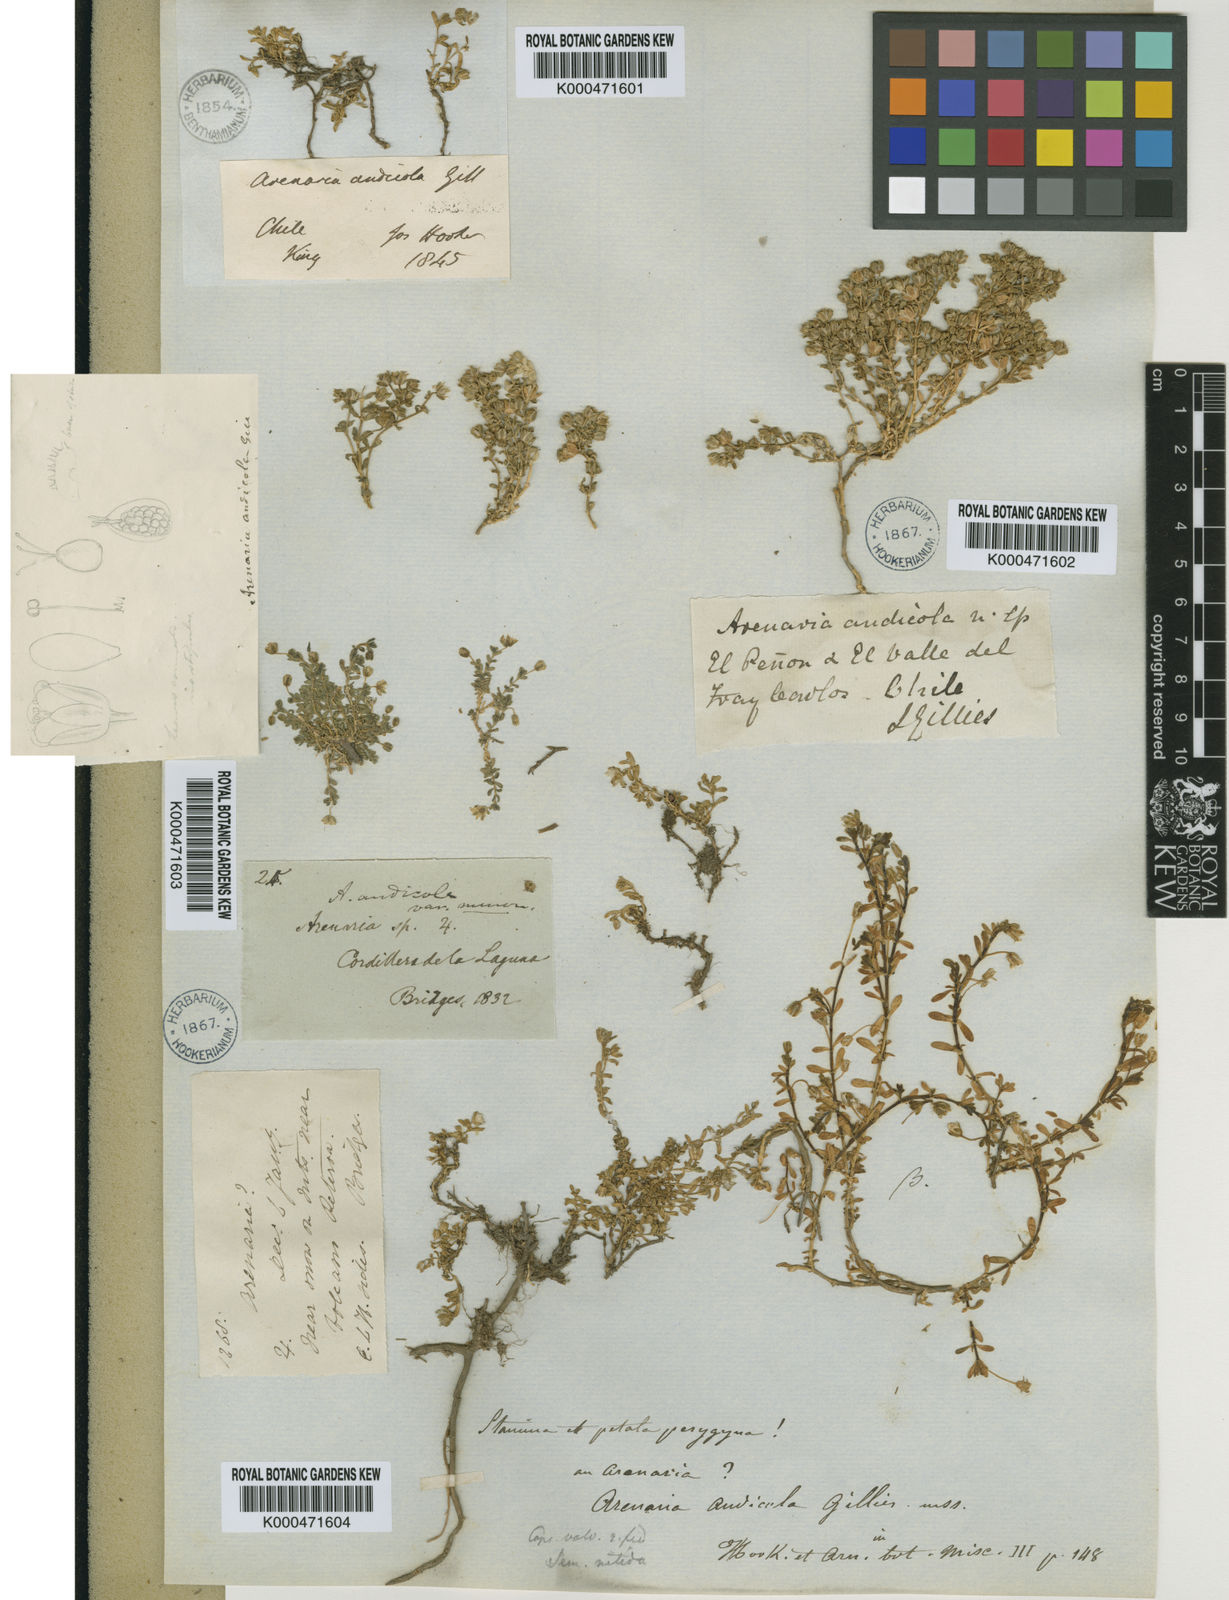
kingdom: Plantae
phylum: Tracheophyta
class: Magnoliopsida
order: Caryophyllales
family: Caryophyllaceae
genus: Arenaria
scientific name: Arenaria
